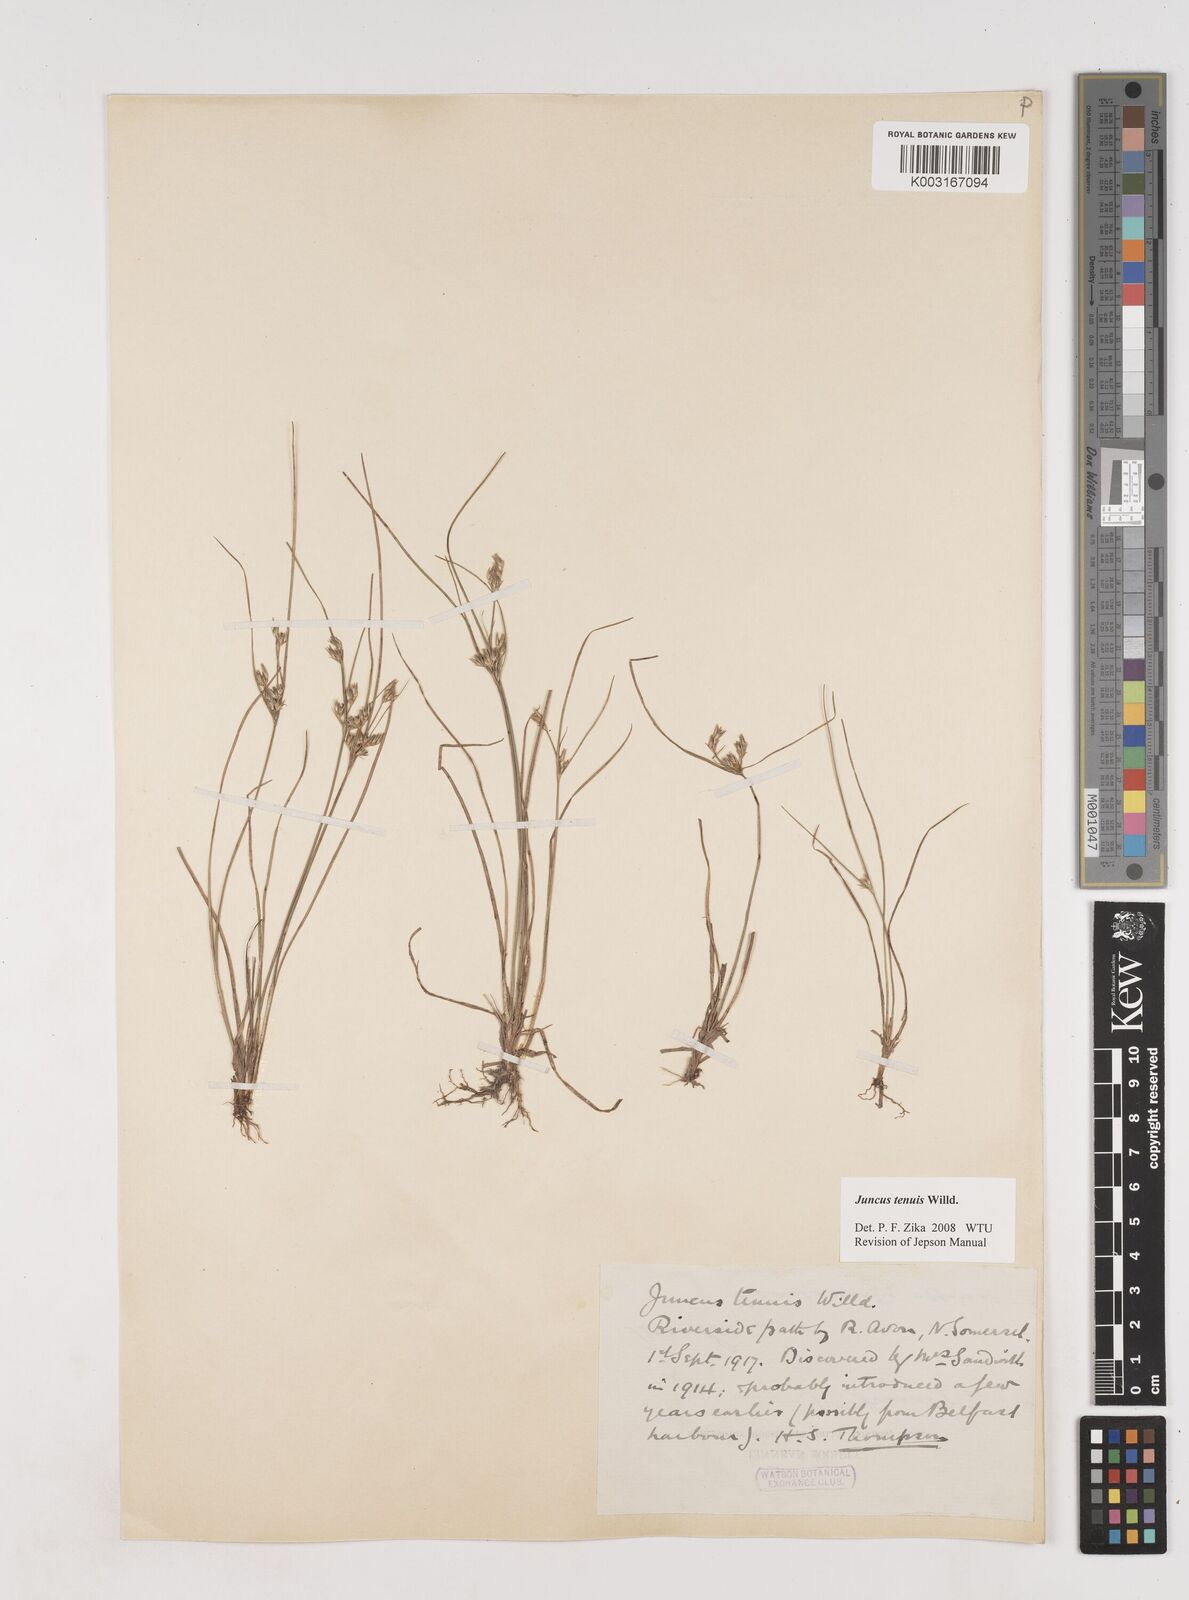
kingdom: Plantae
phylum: Tracheophyta
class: Liliopsida
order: Poales
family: Juncaceae
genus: Juncus
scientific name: Juncus tenuis
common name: Slender rush
